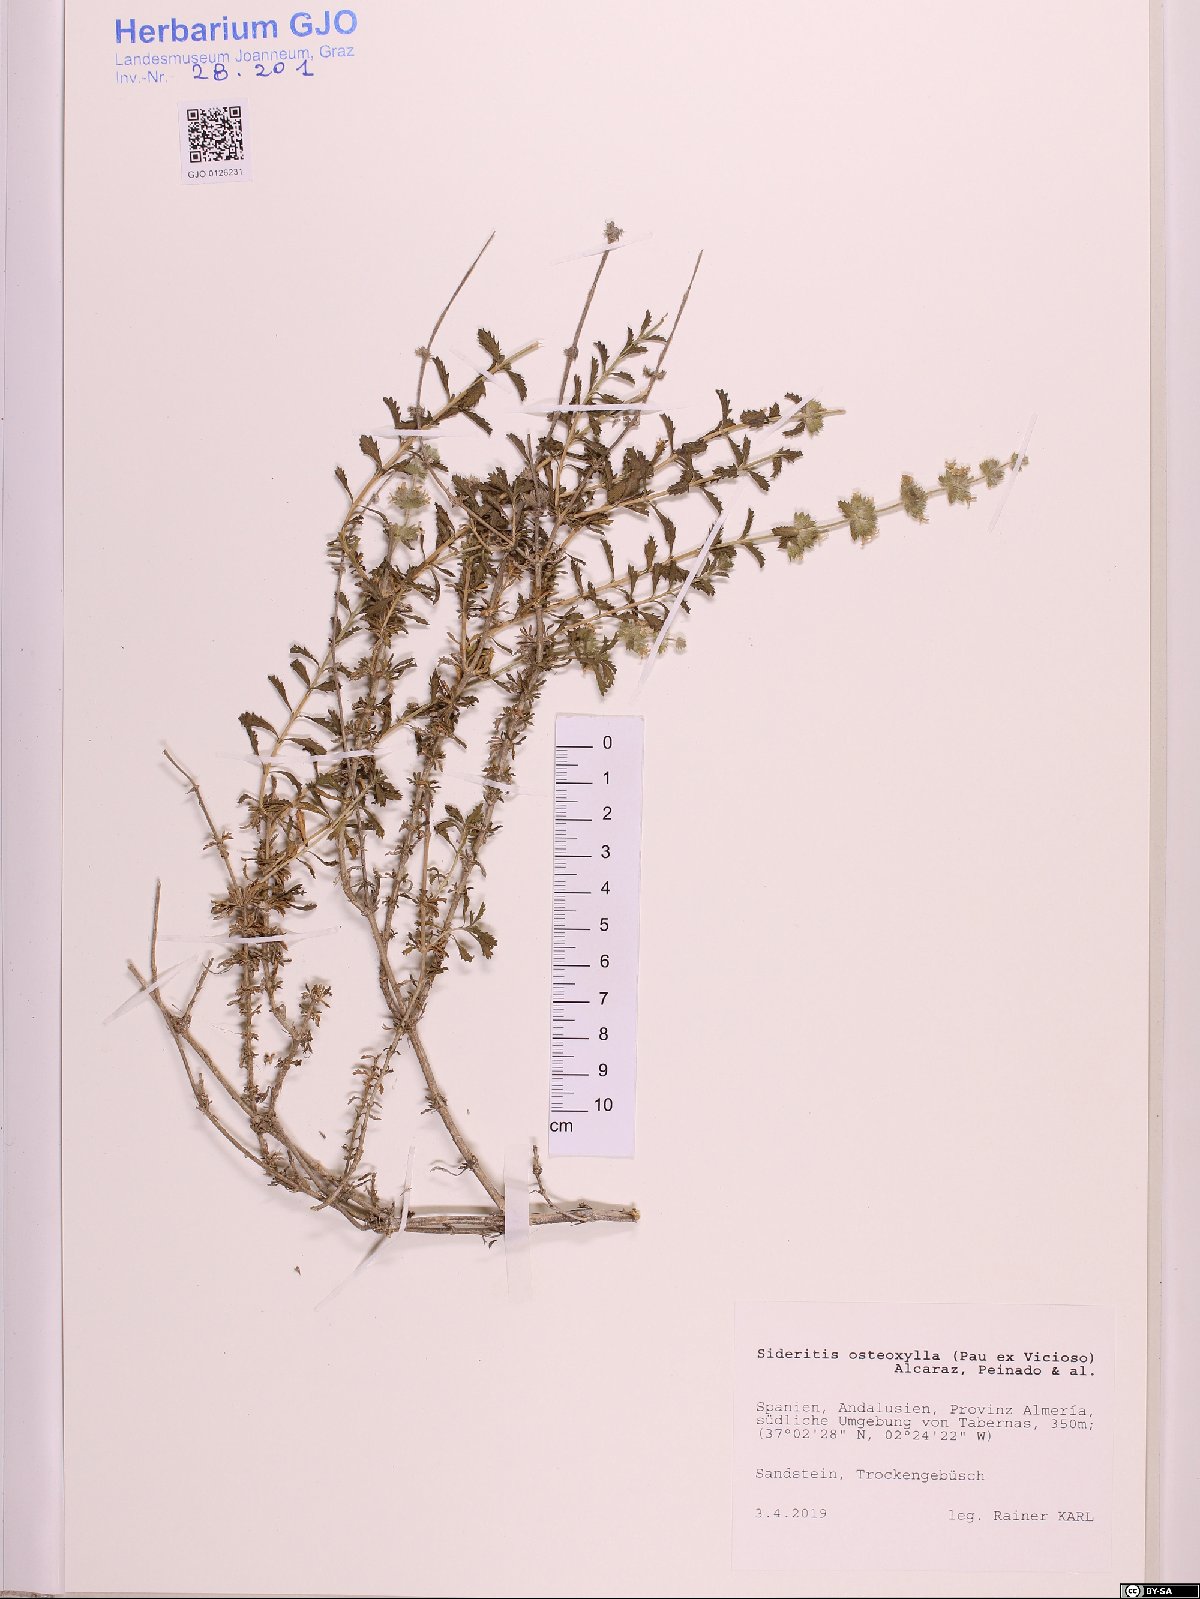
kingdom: Plantae
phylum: Tracheophyta
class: Magnoliopsida
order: Lamiales
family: Lamiaceae
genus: Sideritis
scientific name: Sideritis osteoxylla
